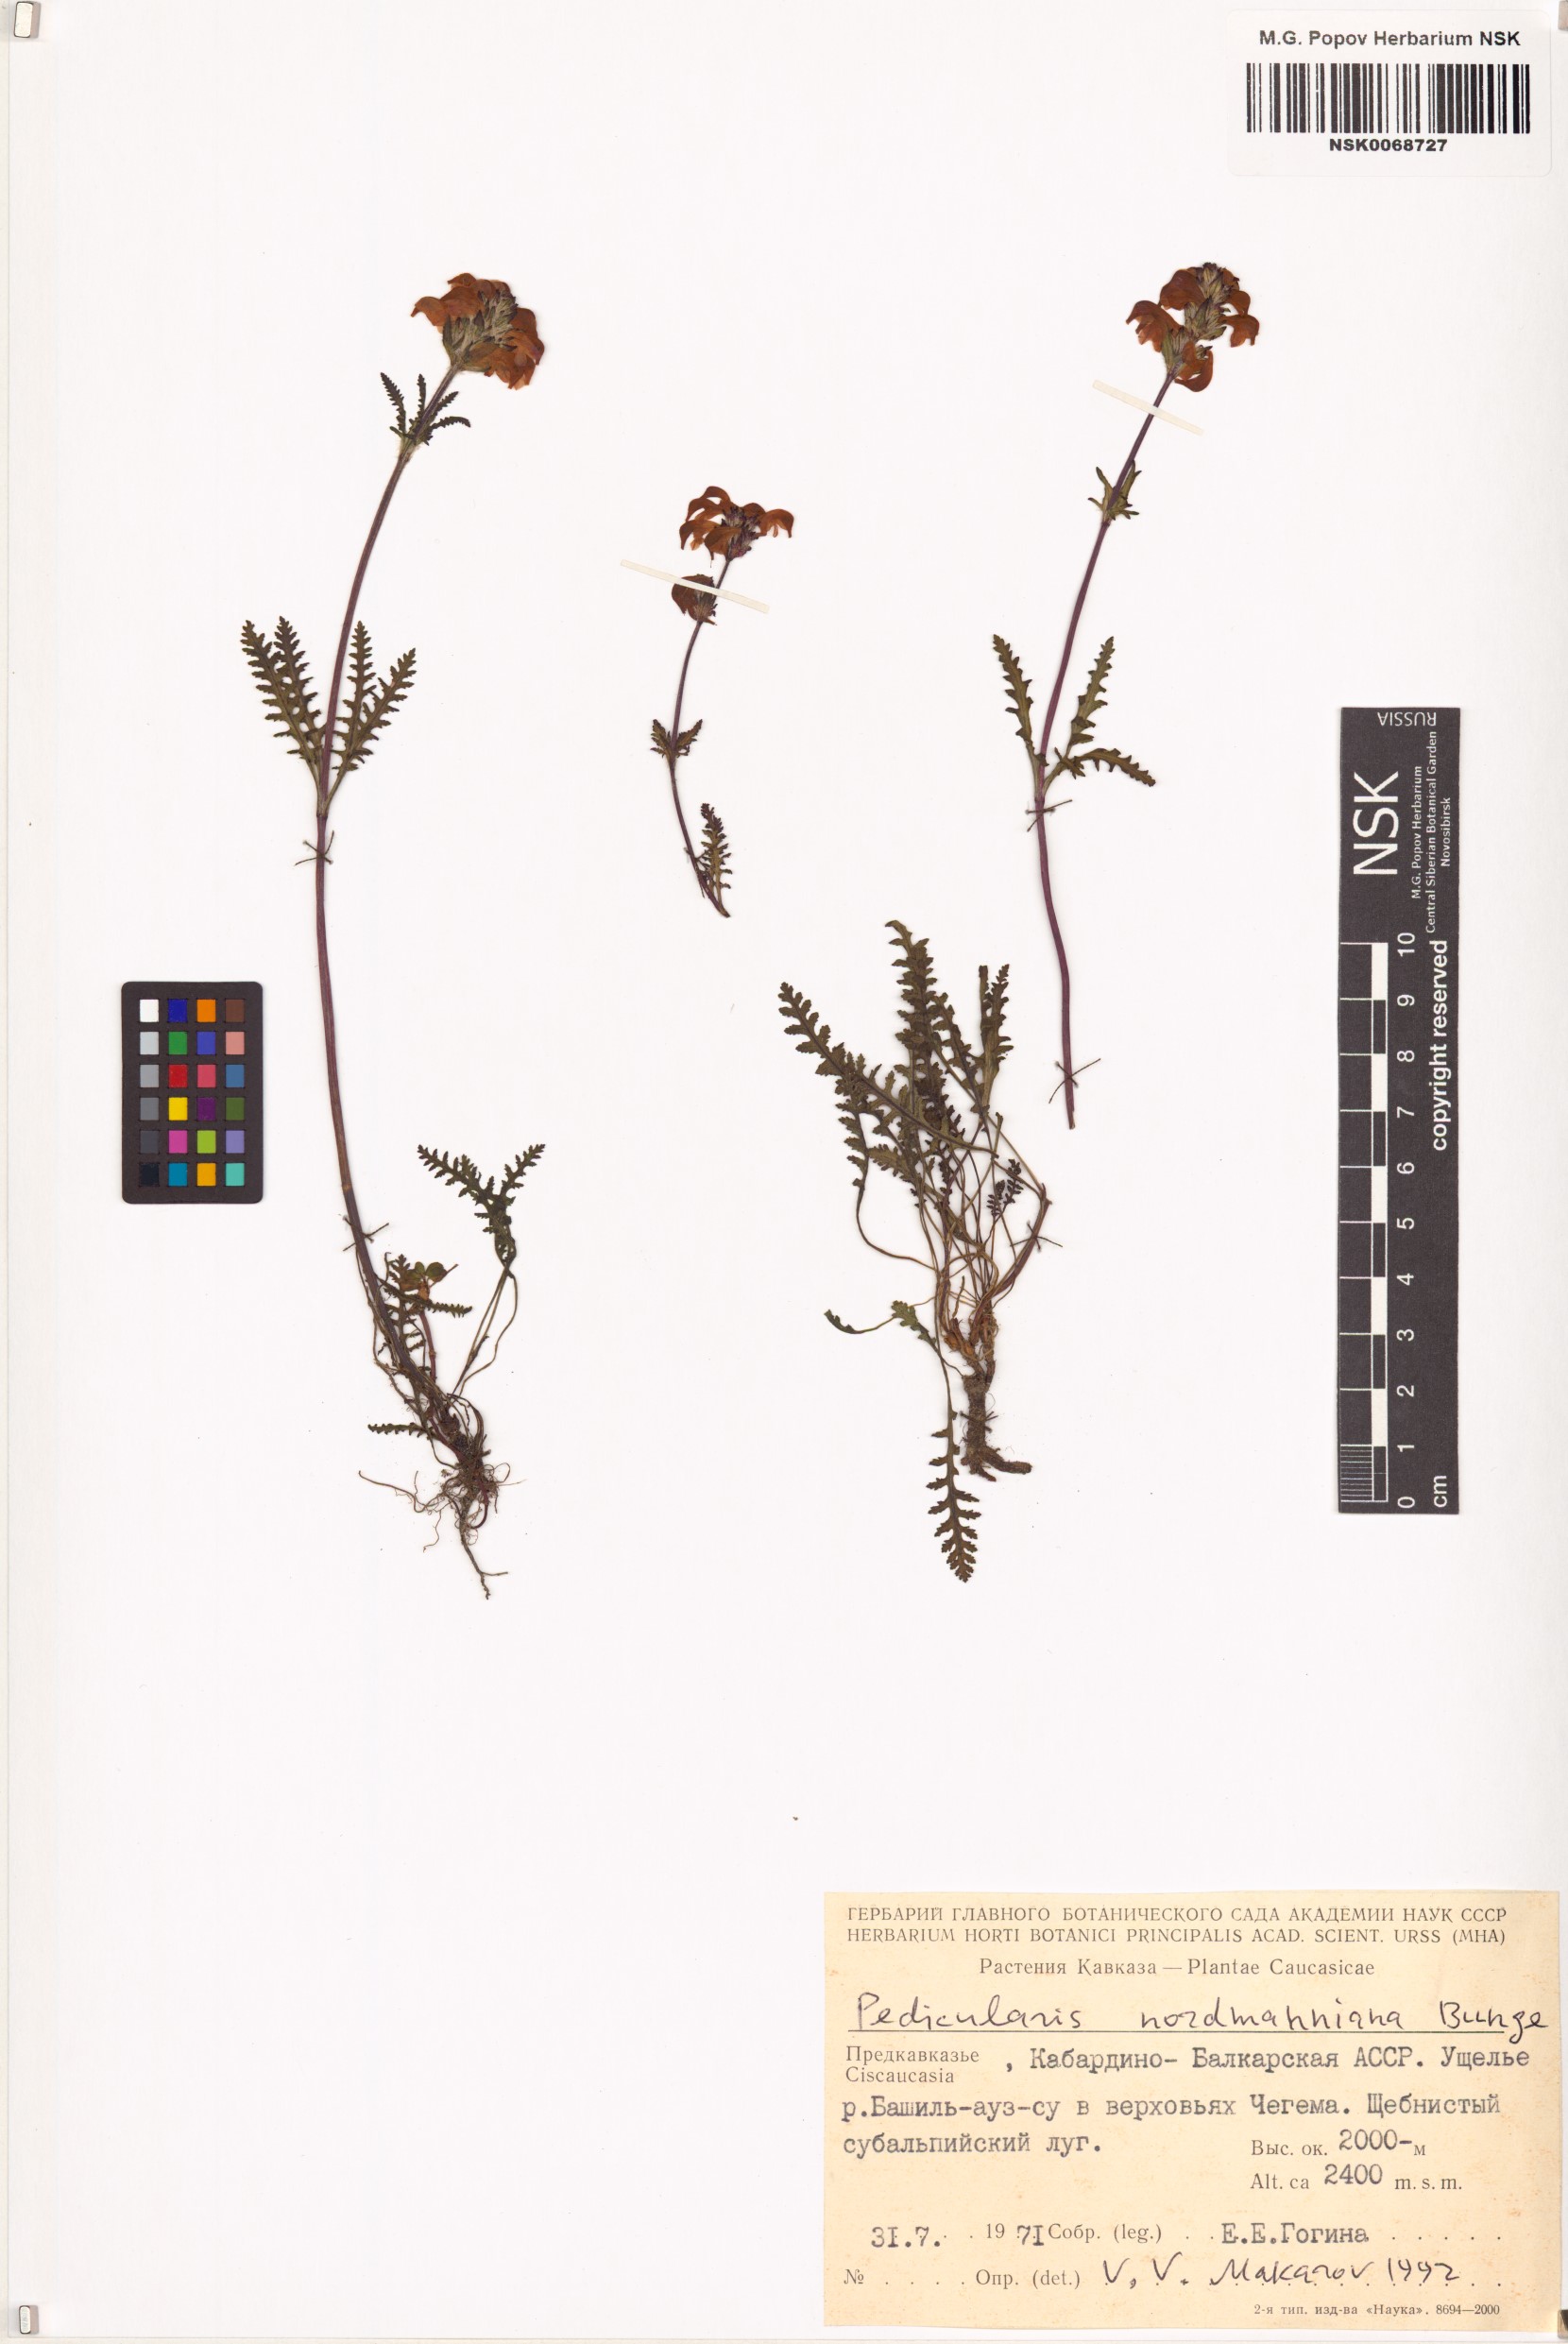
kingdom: Plantae
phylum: Tracheophyta
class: Magnoliopsida
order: Lamiales
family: Orobanchaceae
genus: Pedicularis
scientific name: Pedicularis nordmanniana
